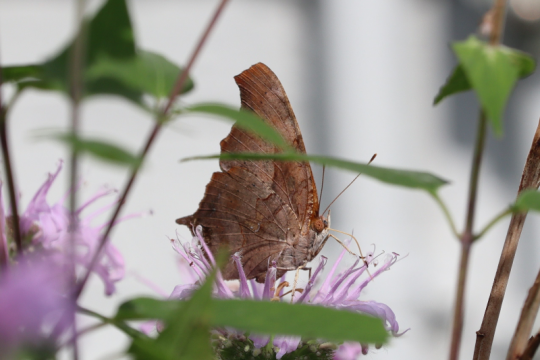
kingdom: Animalia
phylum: Arthropoda
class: Insecta
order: Lepidoptera
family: Nymphalidae
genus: Polygonia
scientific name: Polygonia interrogationis
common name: Question Mark
